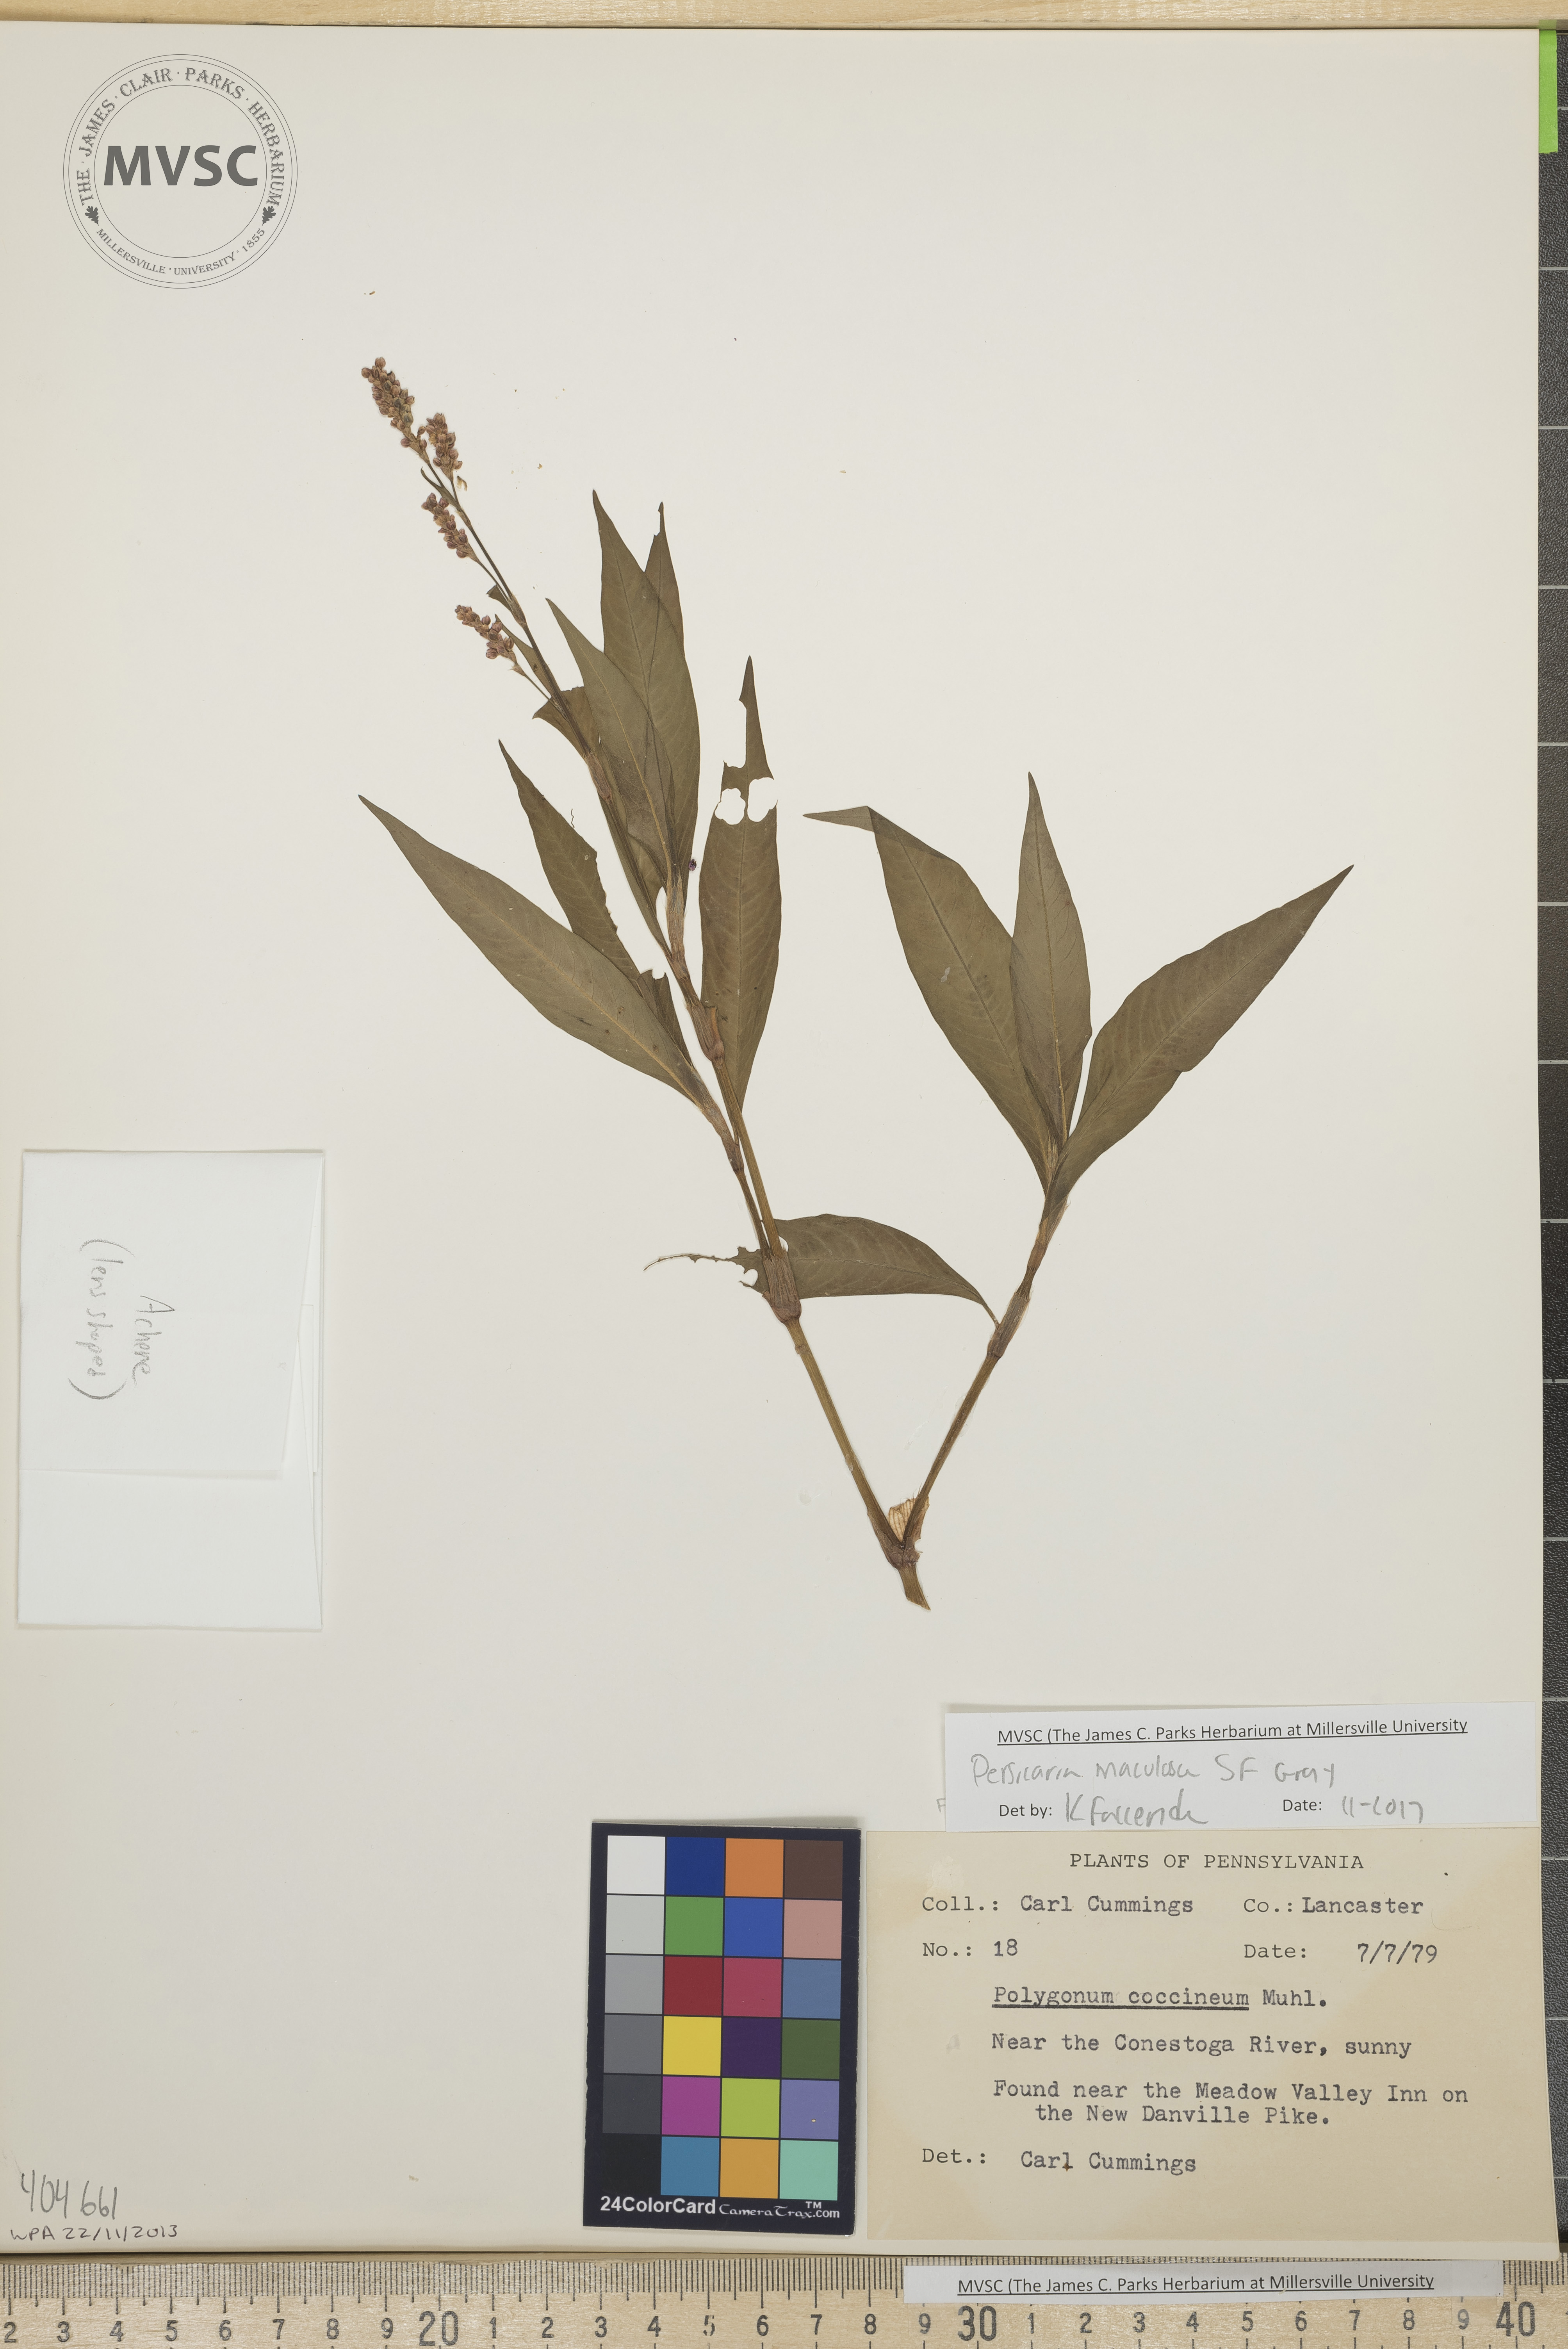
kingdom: Plantae
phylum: Tracheophyta
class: Magnoliopsida
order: Caryophyllales
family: Polygonaceae
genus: Persicaria
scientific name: Persicaria maculosa
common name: Spotted lady's thumb
